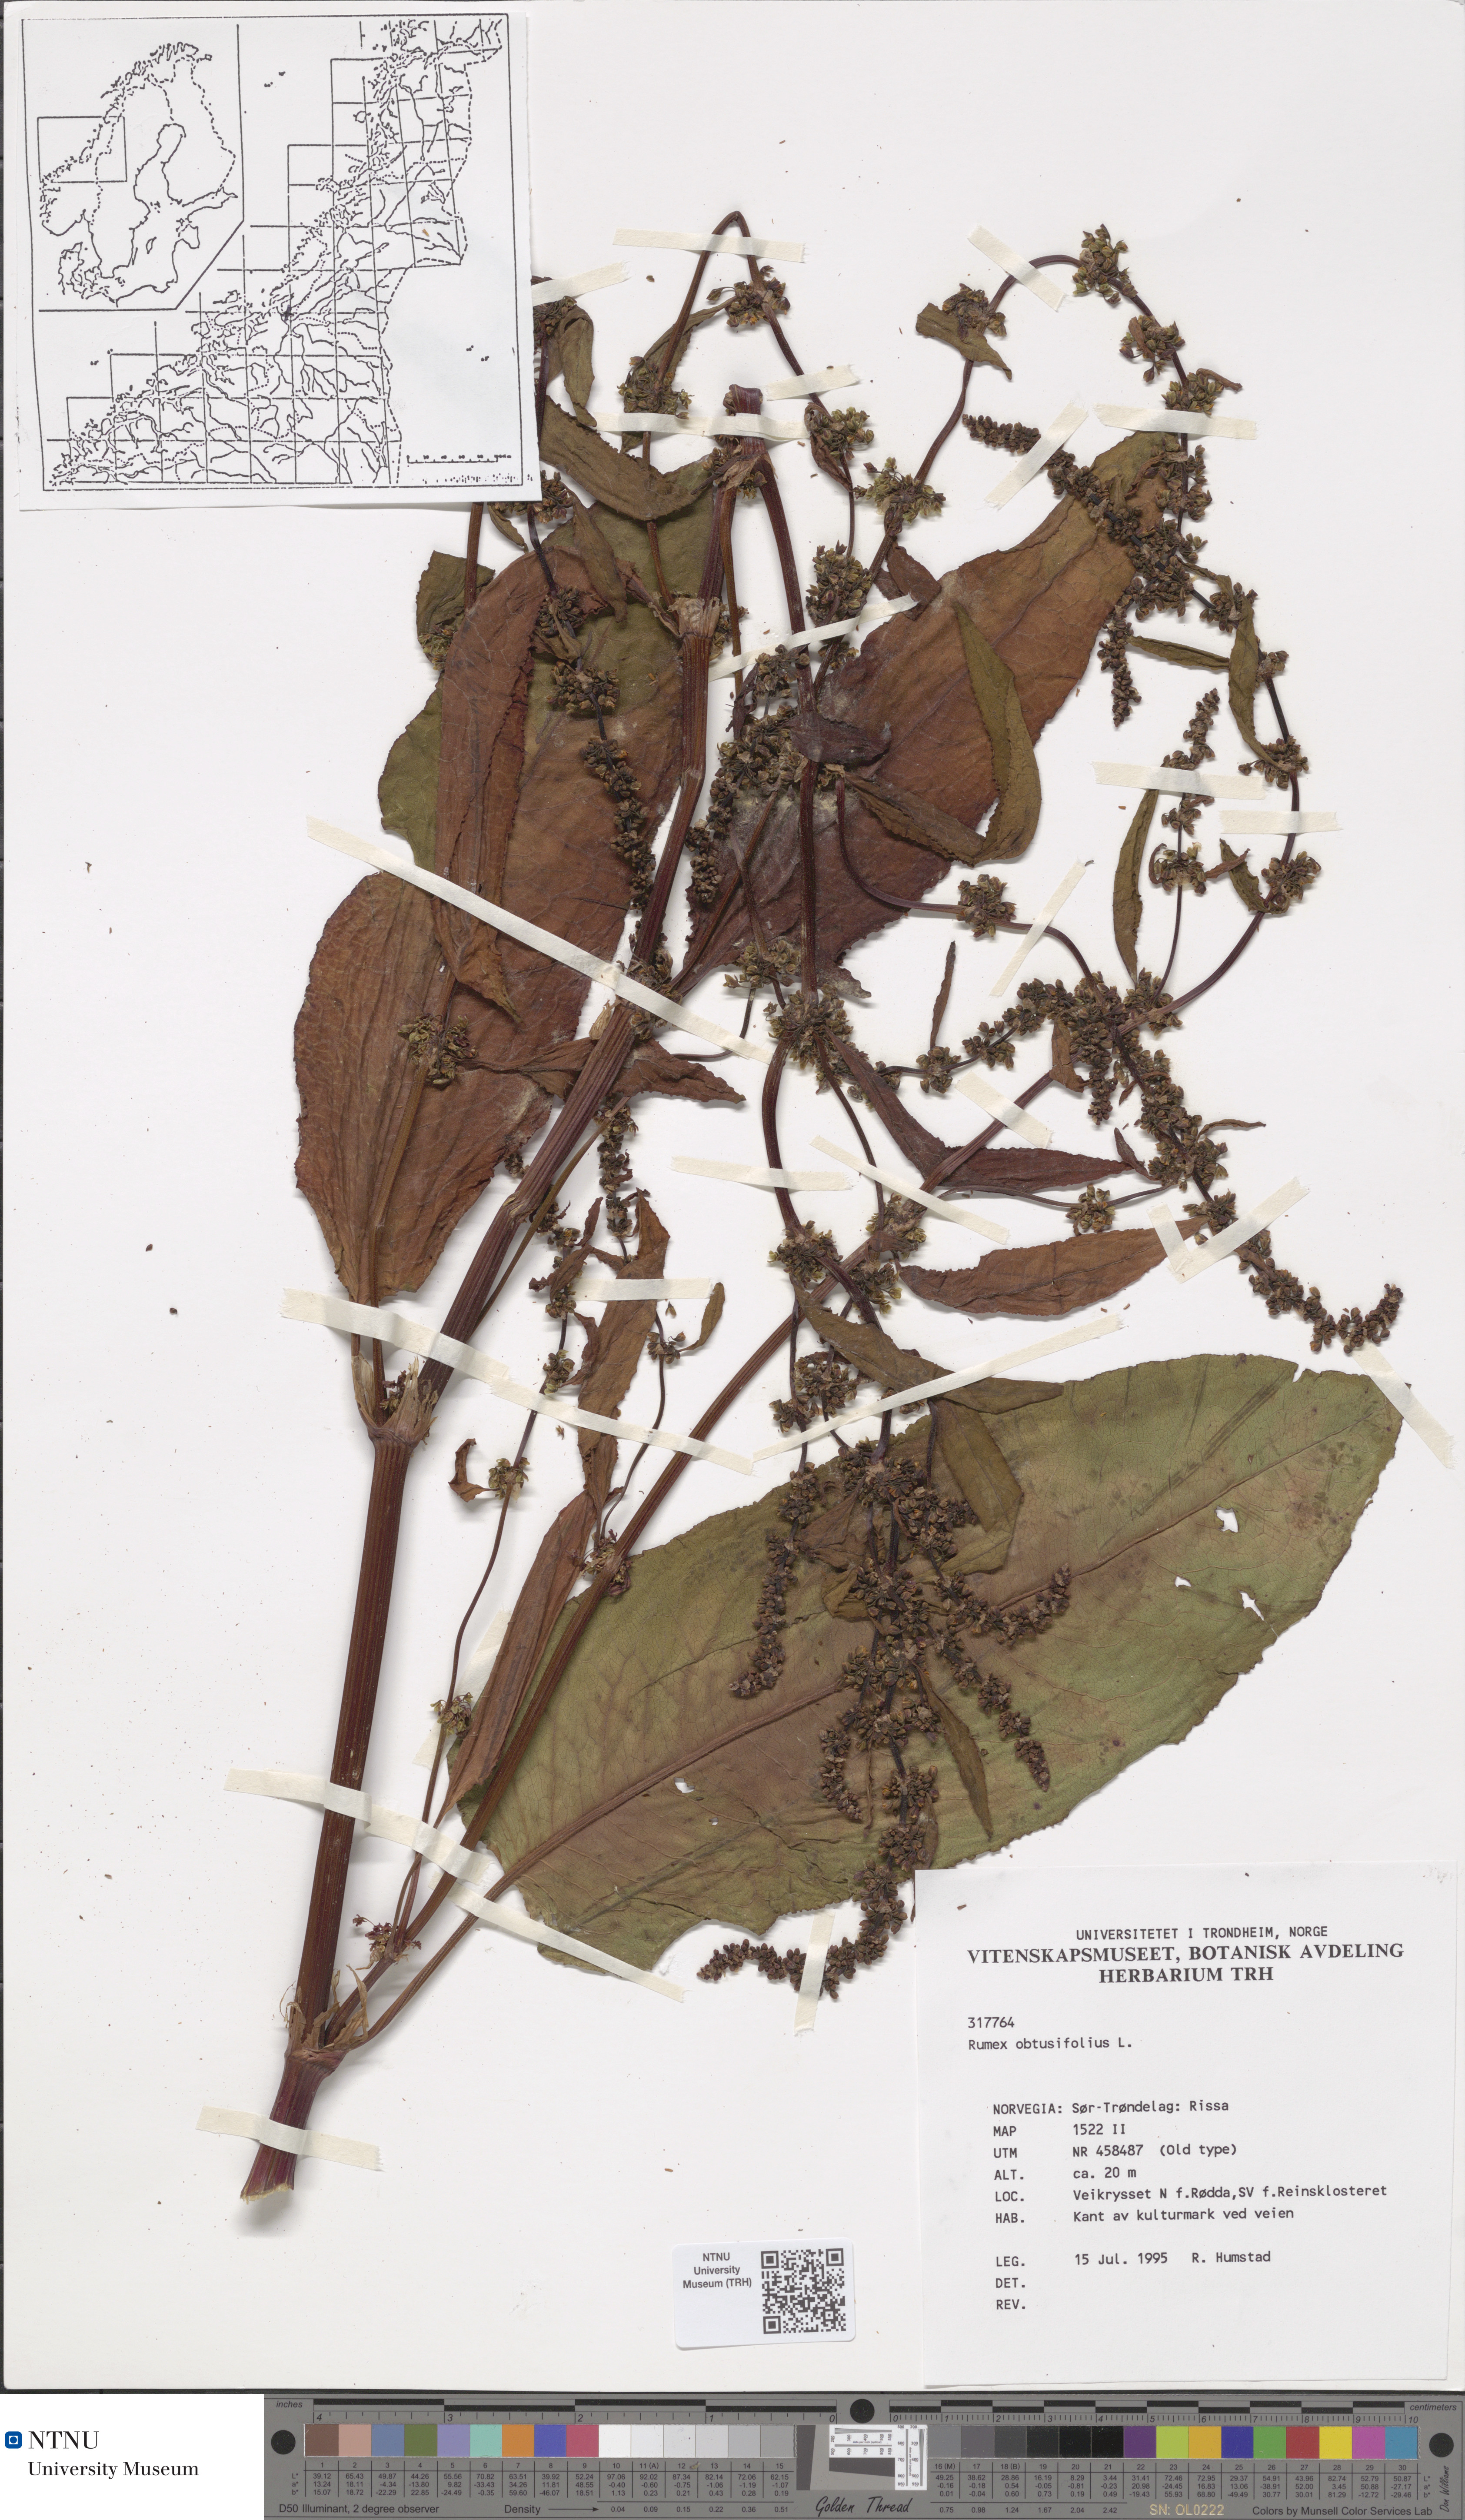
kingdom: Plantae
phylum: Tracheophyta
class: Magnoliopsida
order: Caryophyllales
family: Polygonaceae
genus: Rumex
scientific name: Rumex obtusifolius
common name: Bitter dock
